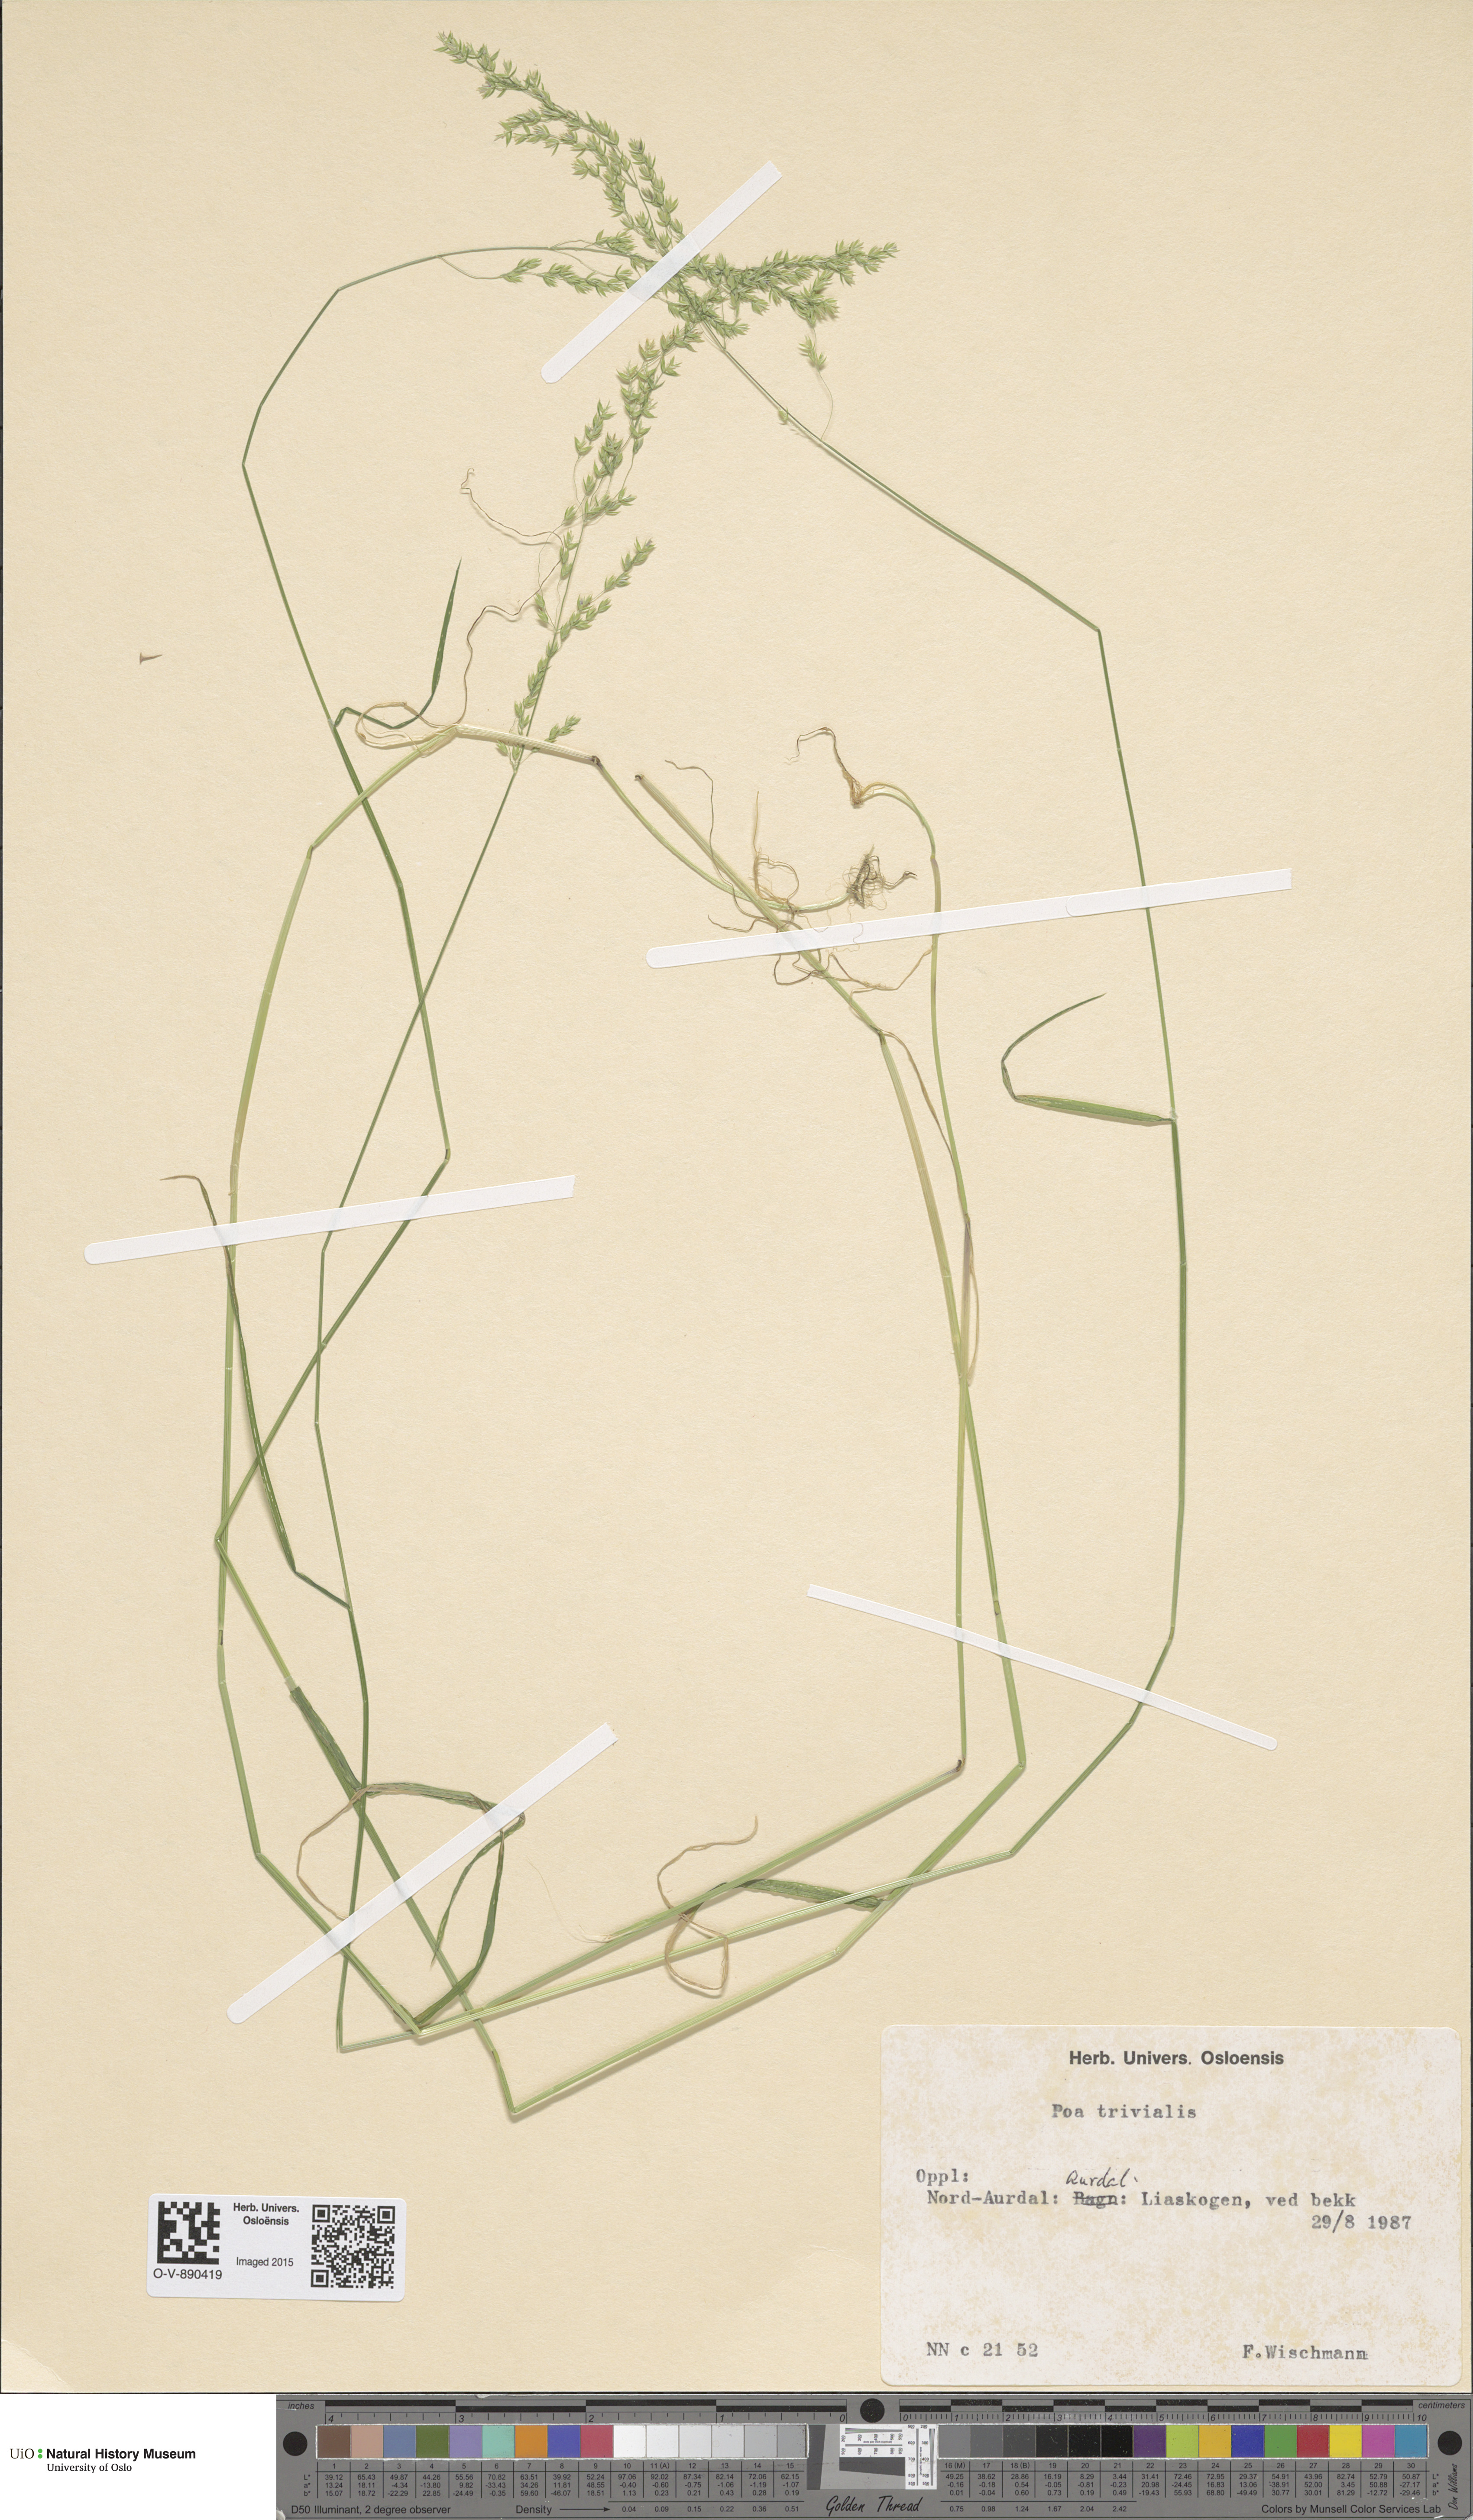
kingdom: Plantae
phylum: Tracheophyta
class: Liliopsida
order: Poales
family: Poaceae
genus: Poa
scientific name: Poa trivialis
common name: Rough bluegrass
